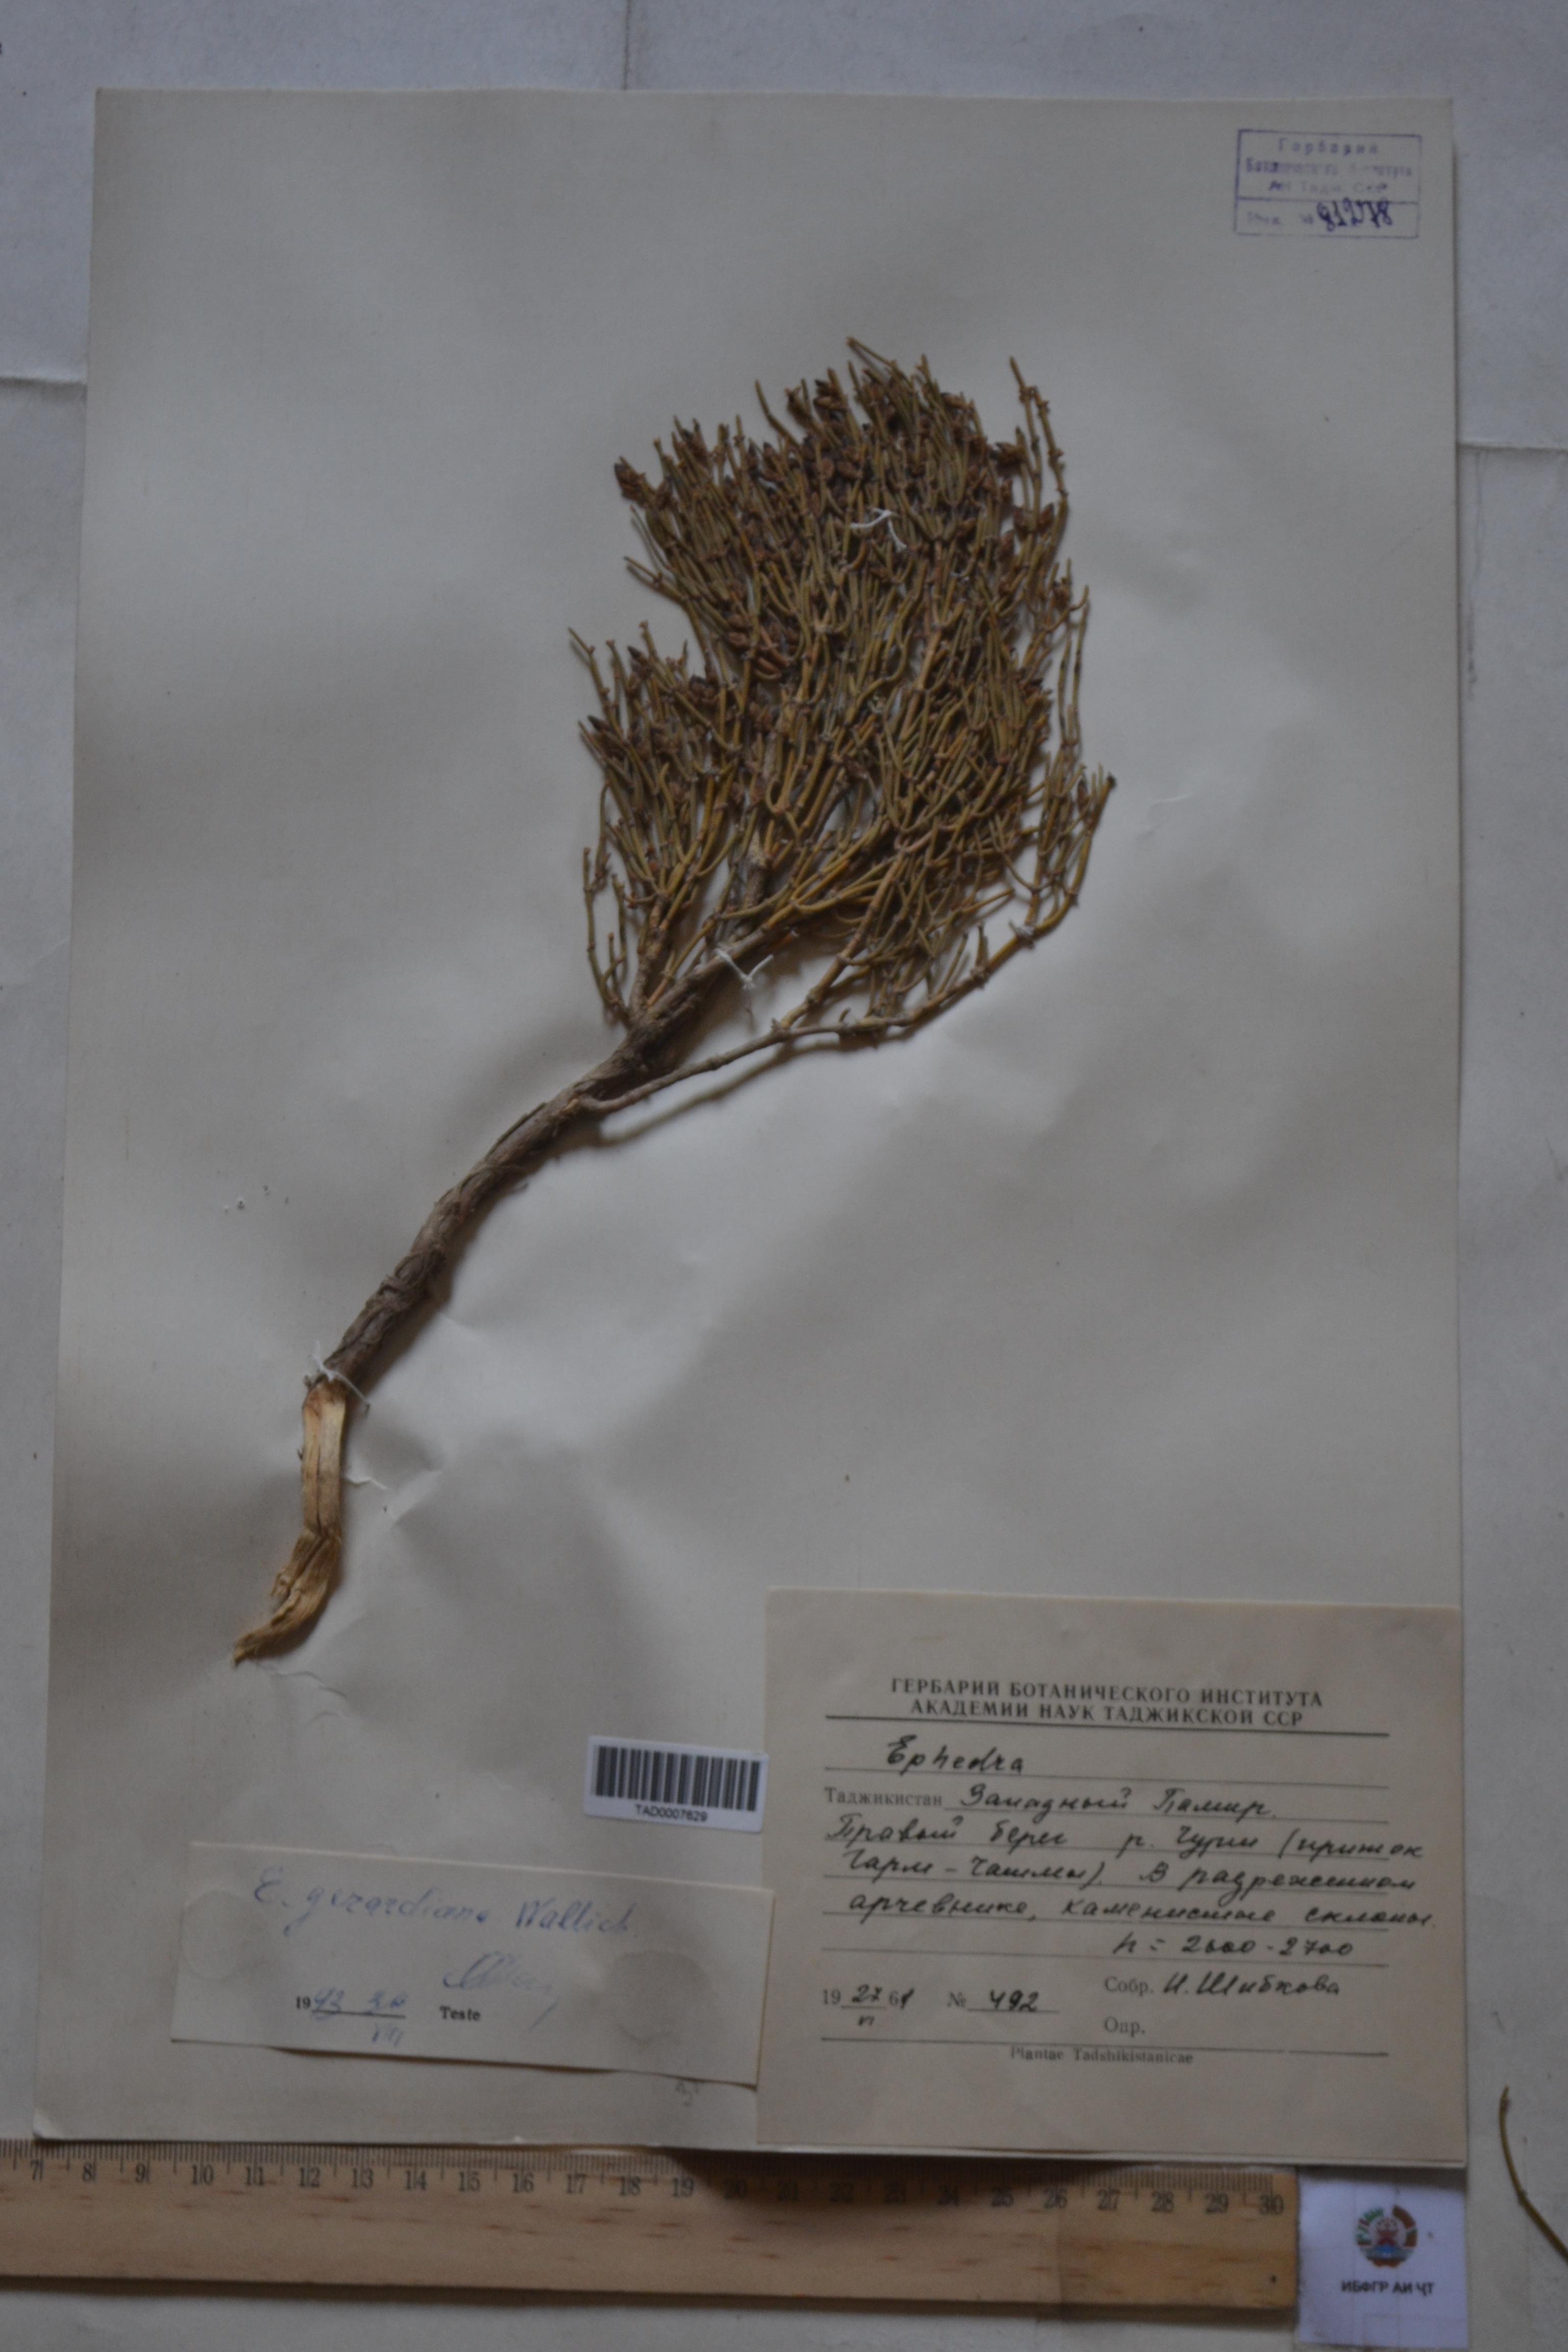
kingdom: Plantae
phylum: Tracheophyta
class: Gnetopsida
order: Ephedrales
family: Ephedraceae
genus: Ephedra
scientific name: Ephedra gerardiana
